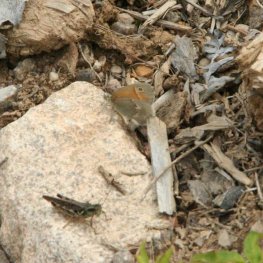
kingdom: Animalia
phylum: Arthropoda
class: Insecta
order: Lepidoptera
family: Nymphalidae
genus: Coenonympha
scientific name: Coenonympha tullia
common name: Large Heath
